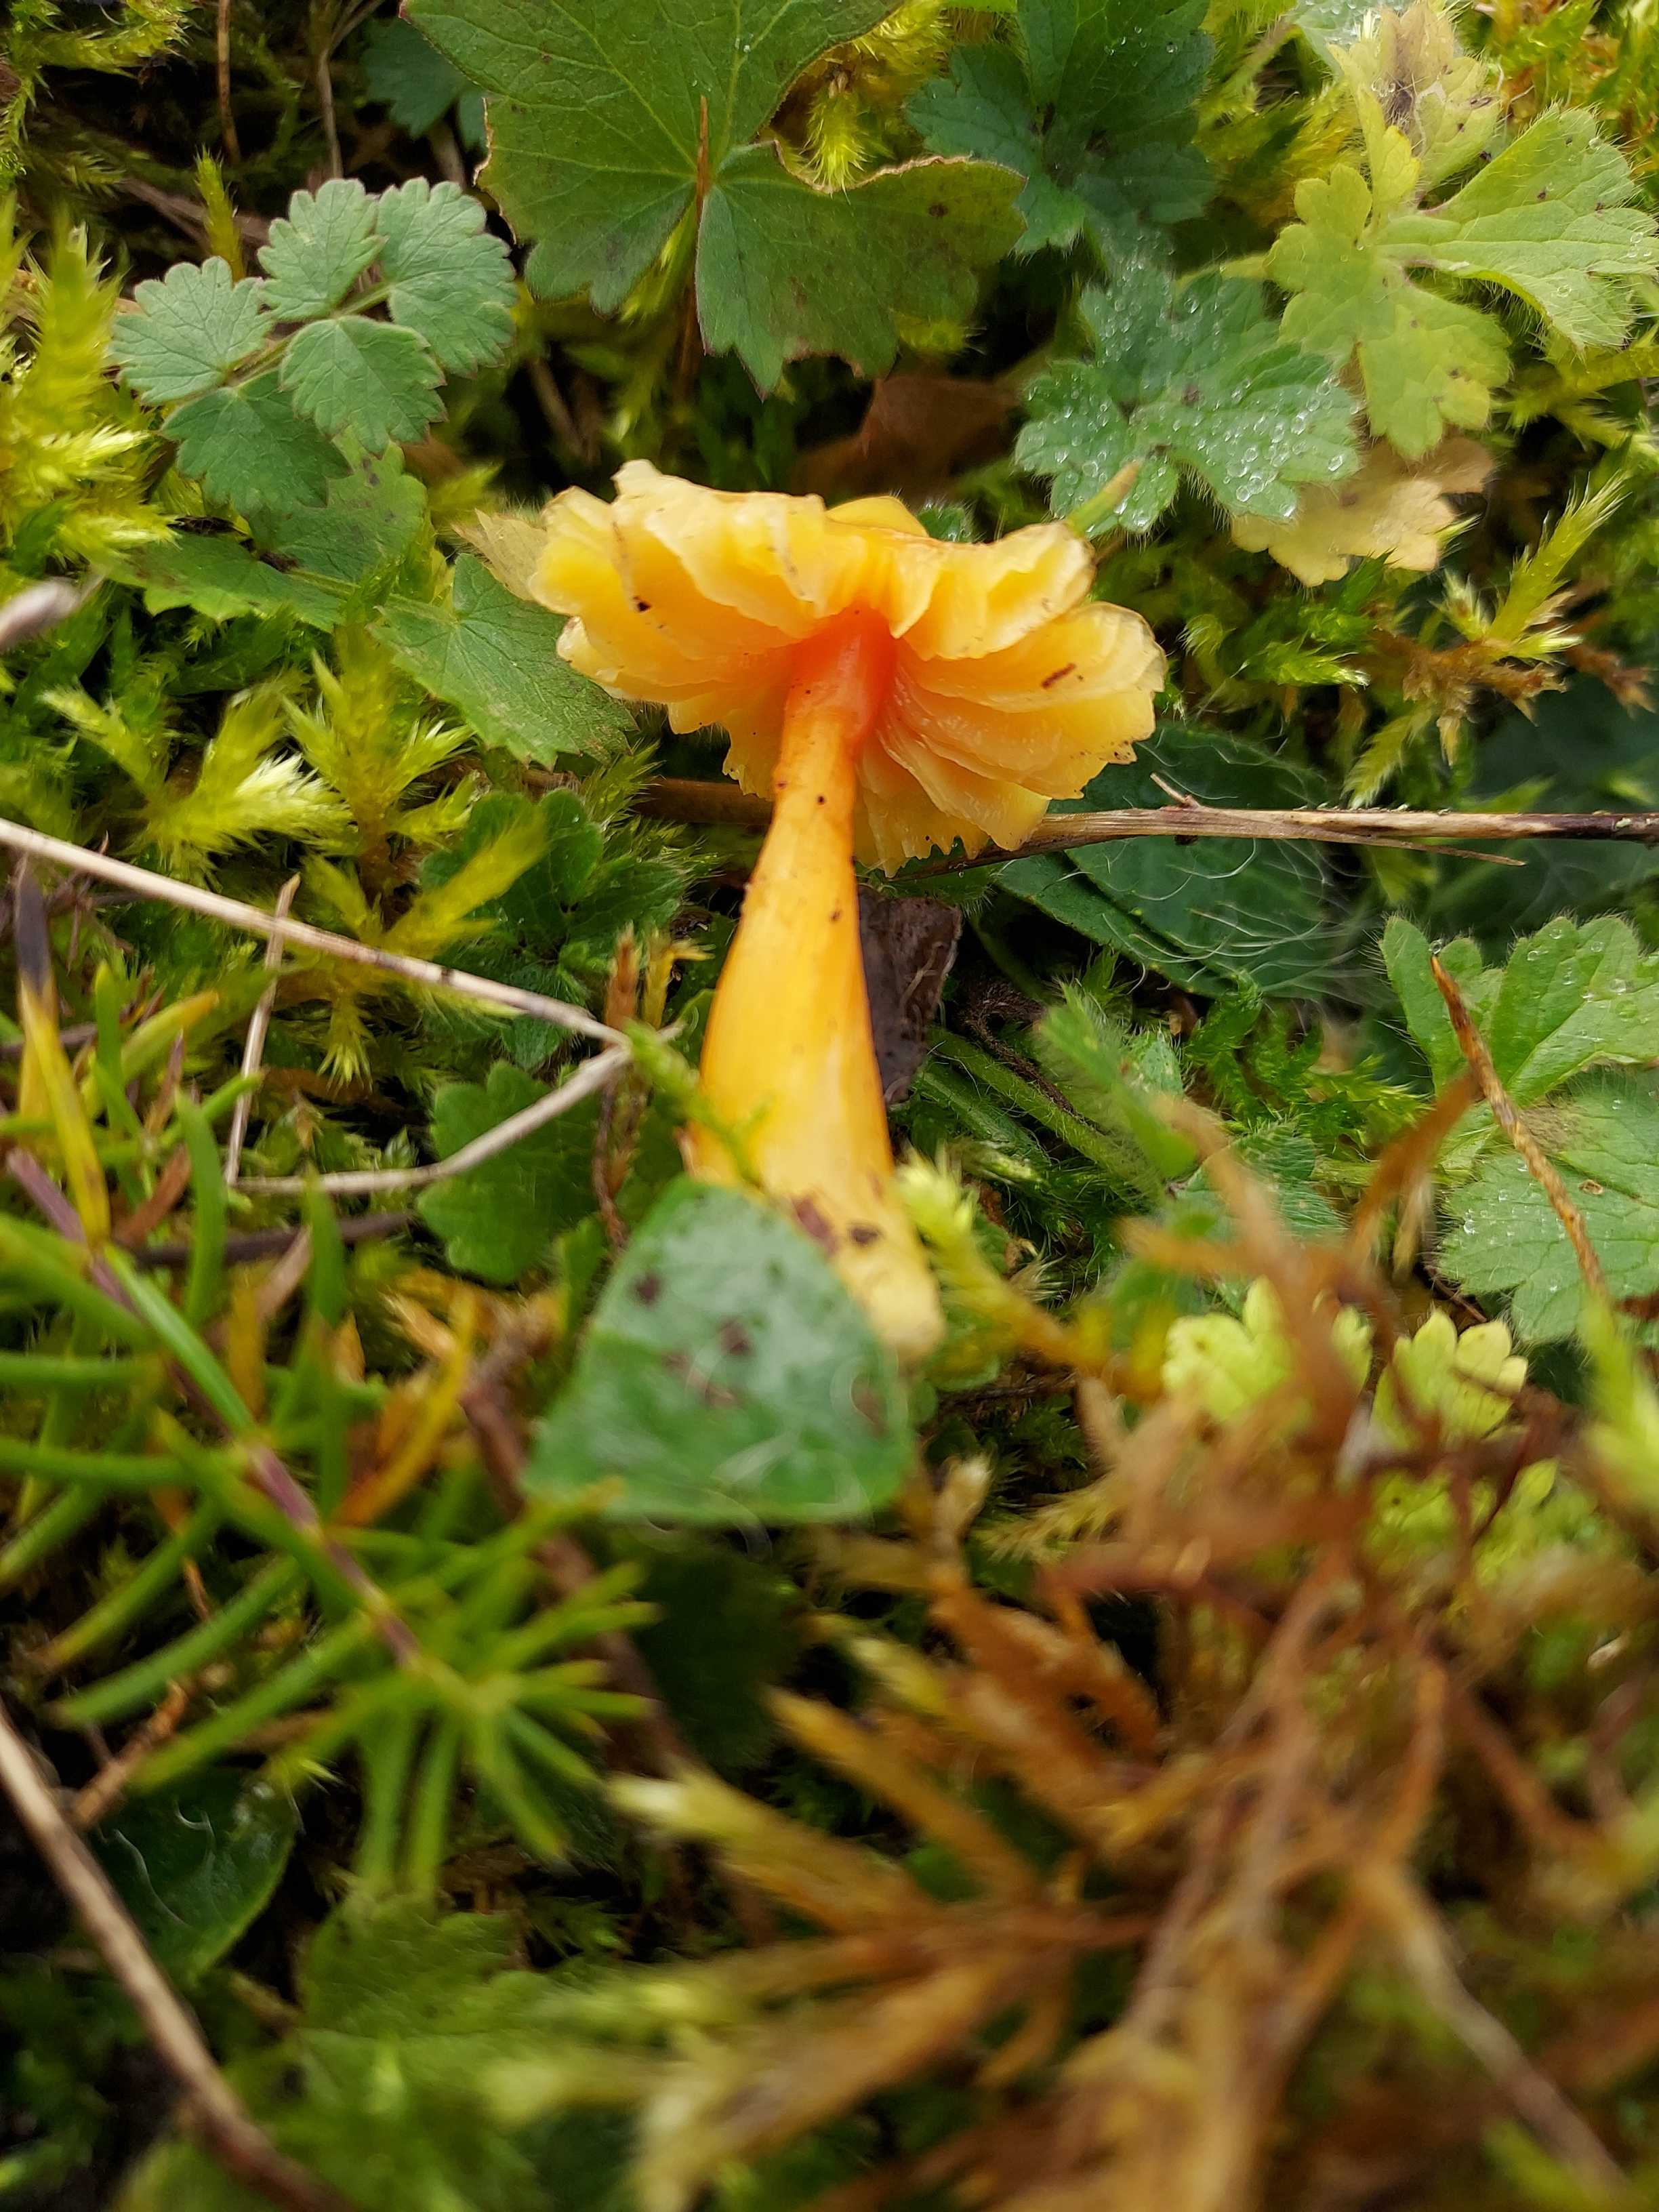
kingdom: Fungi
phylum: Basidiomycota
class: Agaricomycetes
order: Agaricales
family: Hygrophoraceae
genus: Hygrocybe
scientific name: Hygrocybe acutoconica
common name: Konrads vokshat
